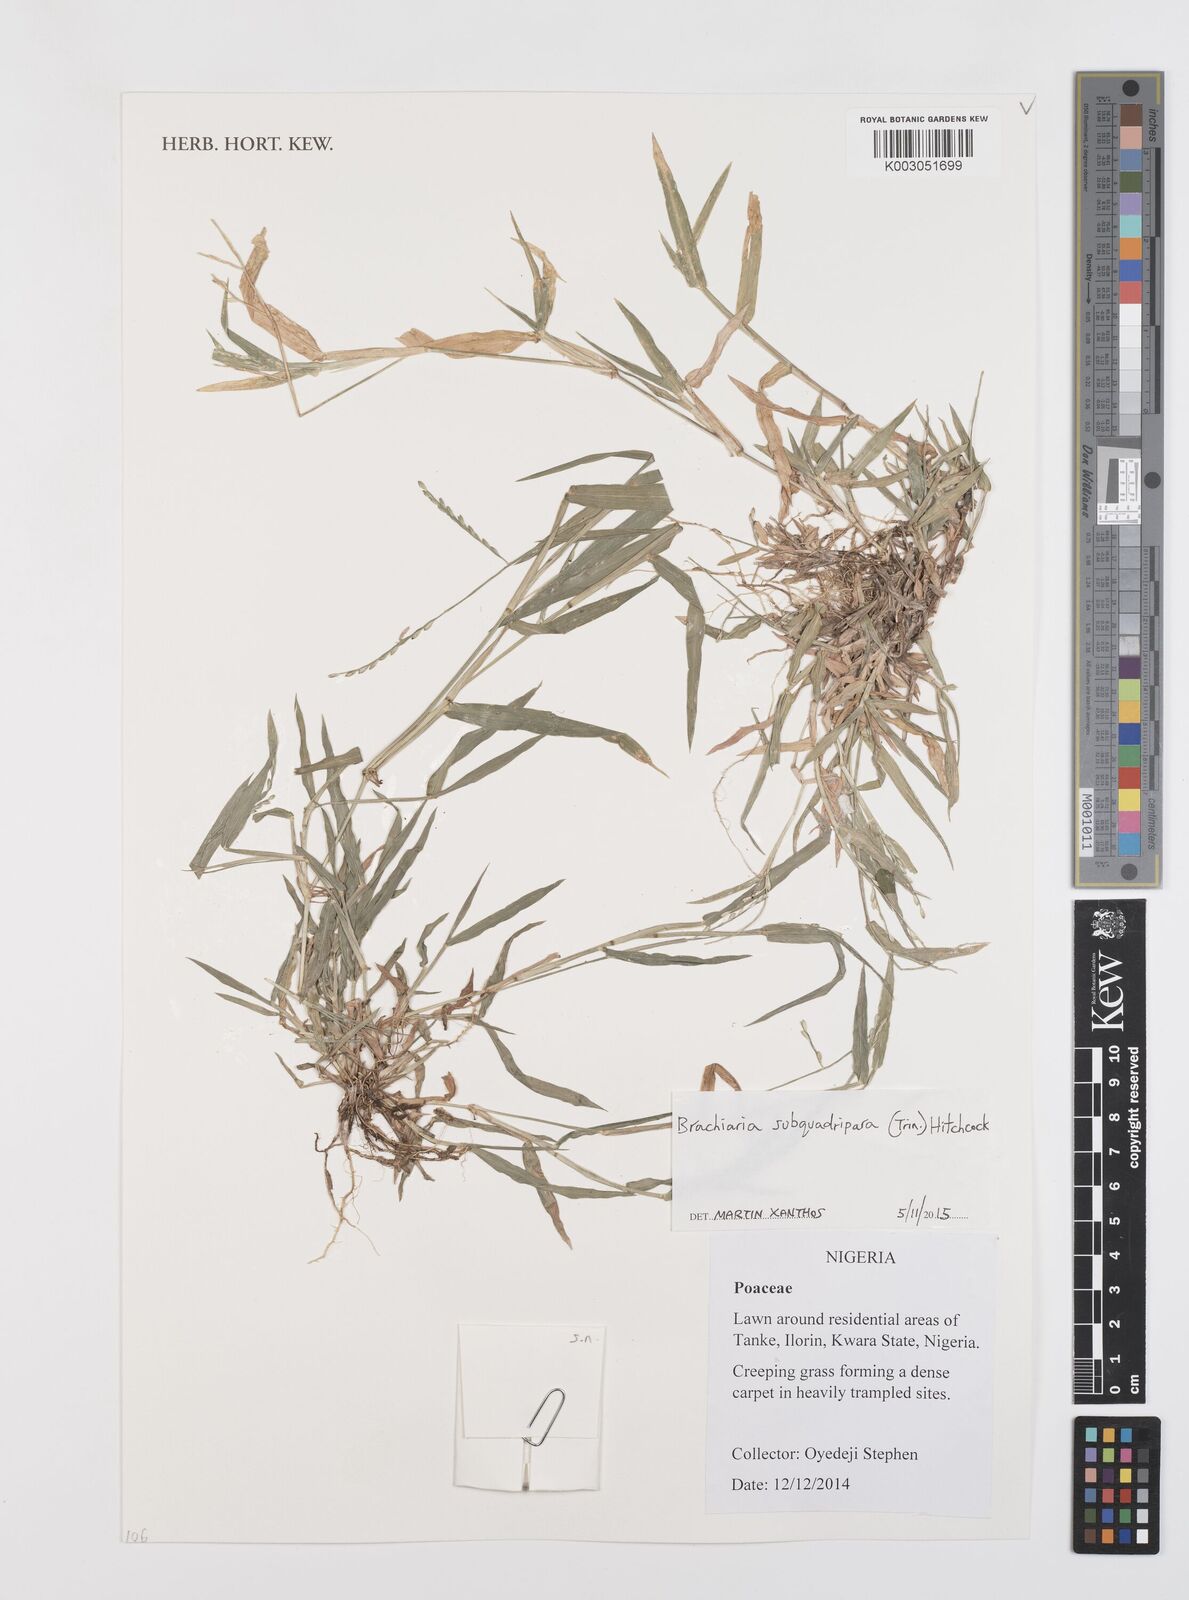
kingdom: Plantae
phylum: Tracheophyta
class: Liliopsida
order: Poales
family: Poaceae
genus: Urochloa
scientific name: Urochloa subquadripara
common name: Armgrass millet
